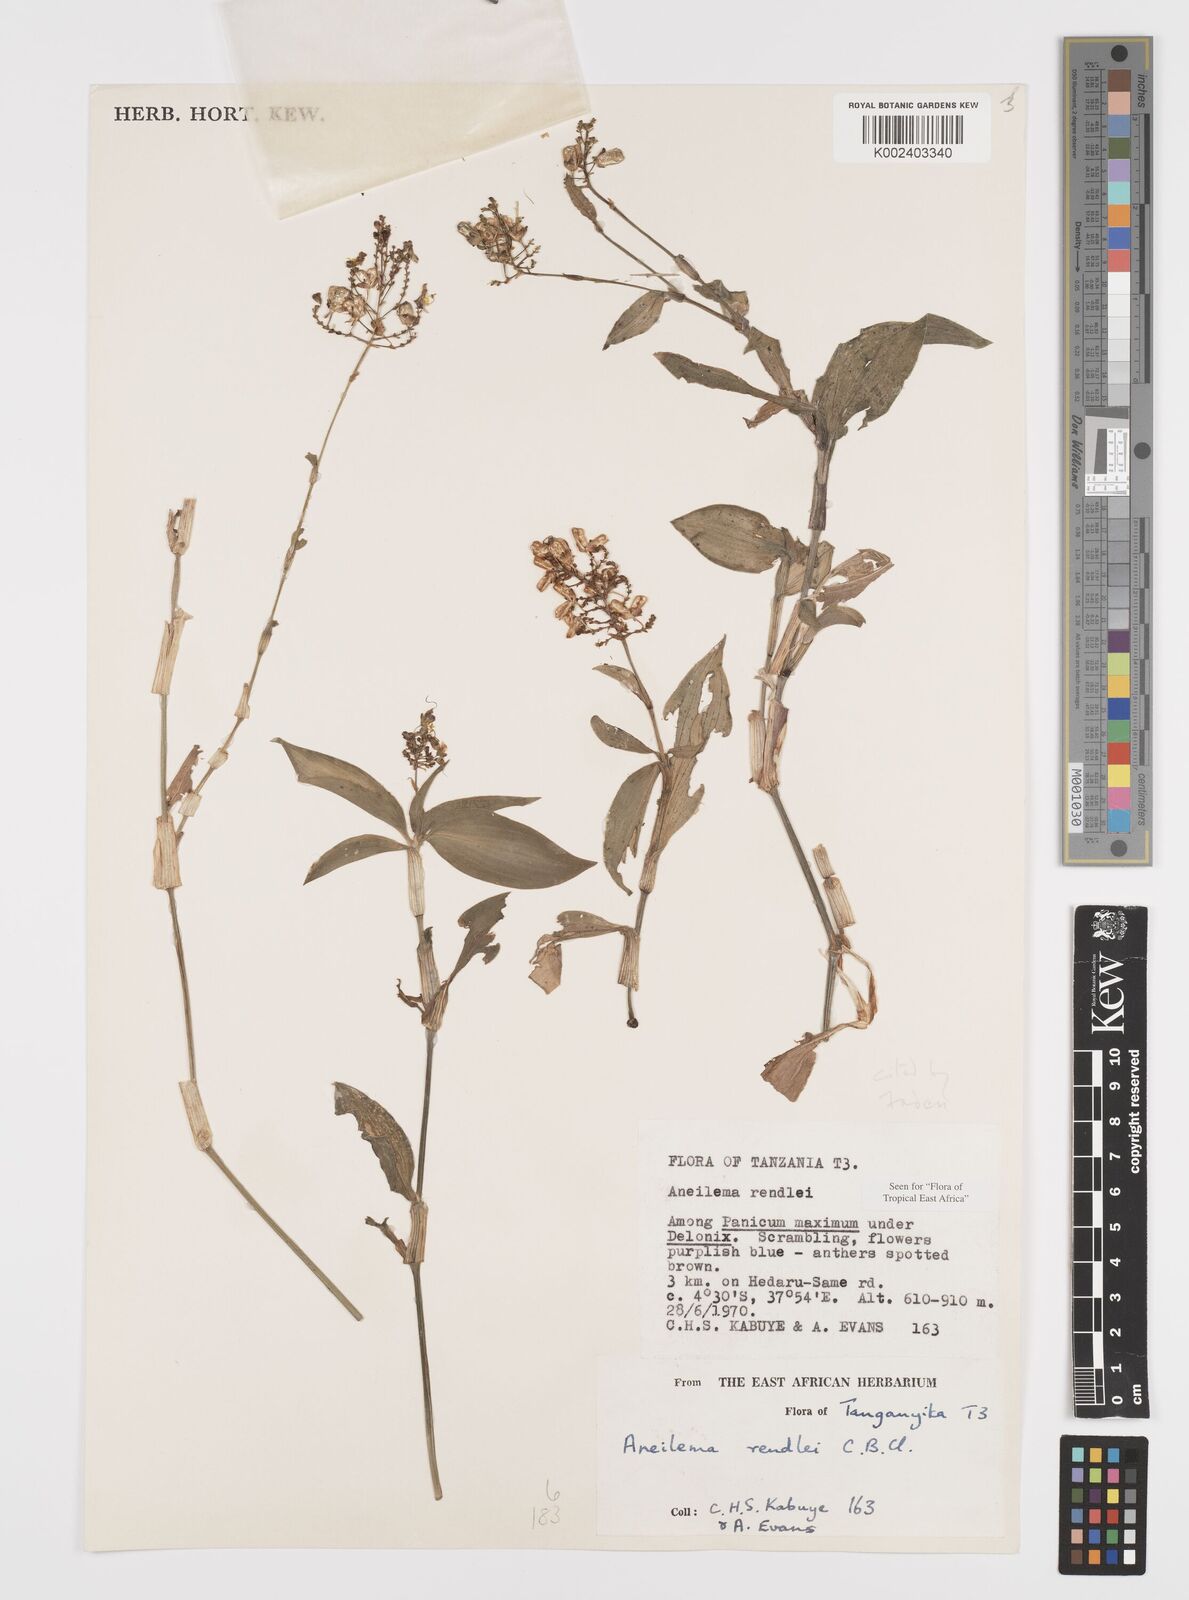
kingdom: Plantae
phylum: Tracheophyta
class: Liliopsida
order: Commelinales
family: Commelinaceae
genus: Aneilema
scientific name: Aneilema rendlei
